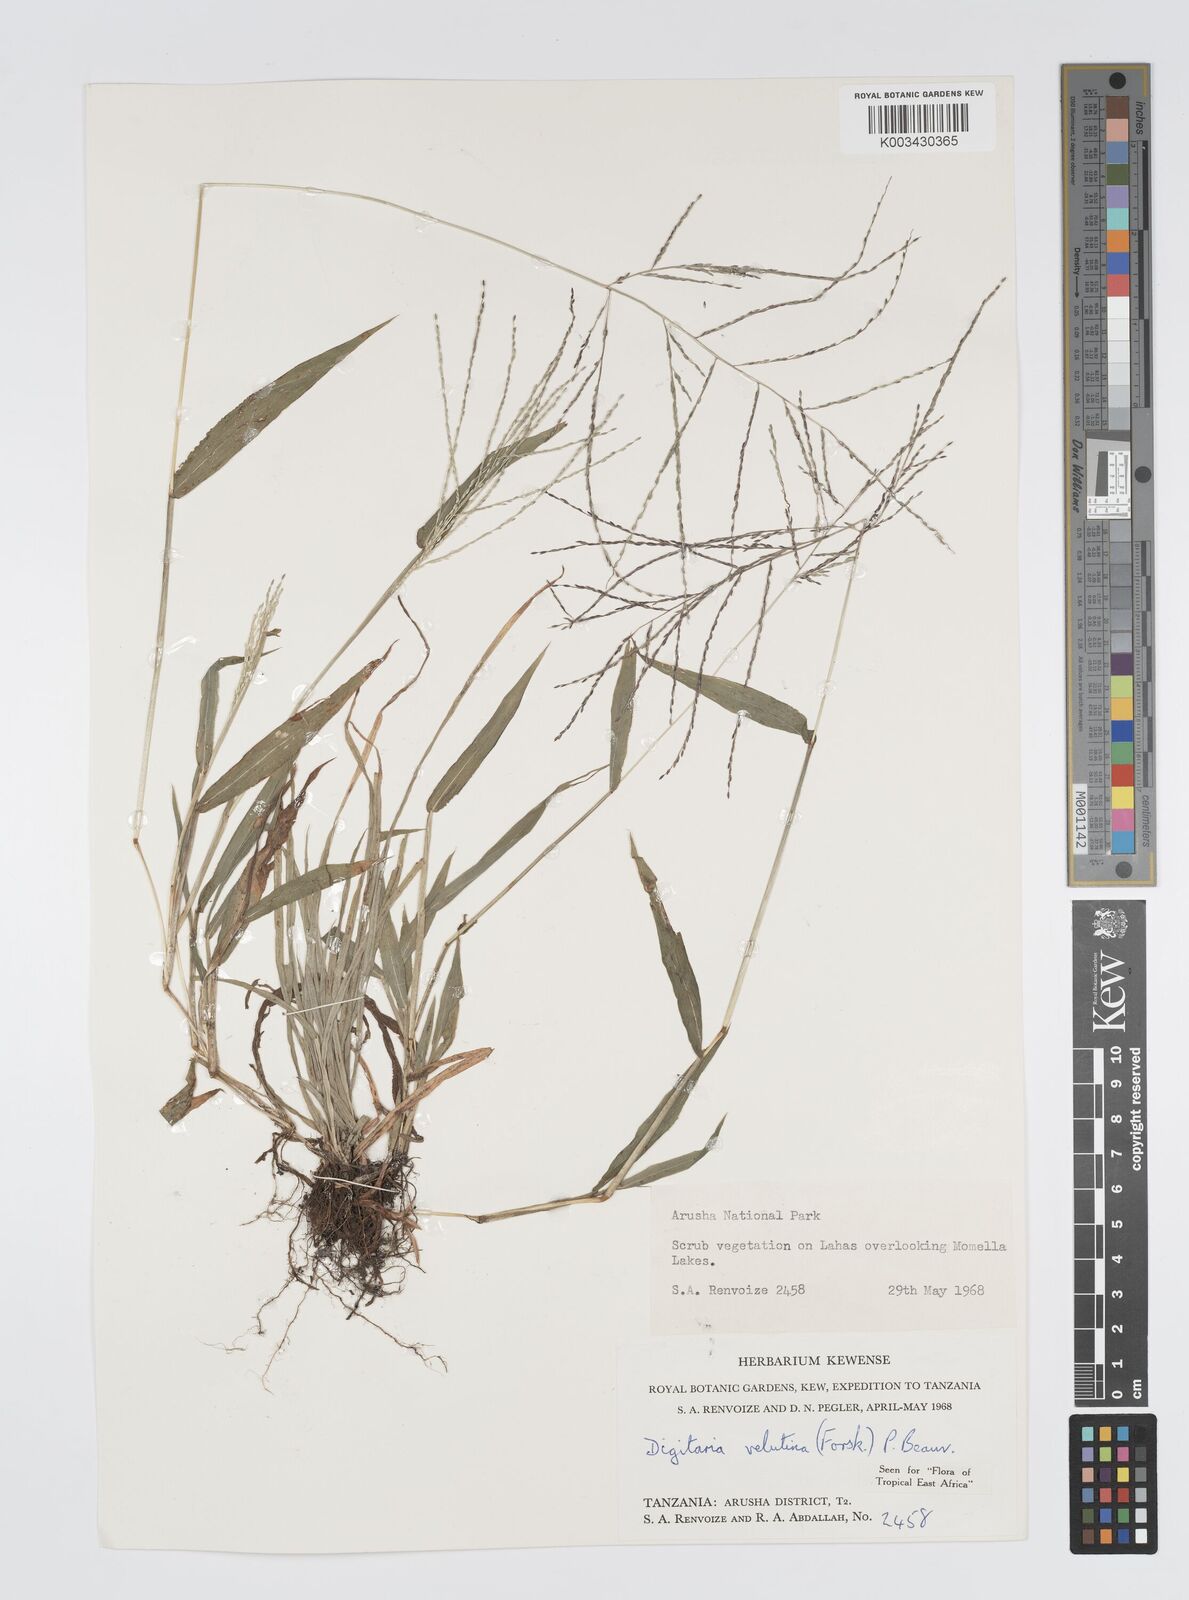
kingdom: Plantae
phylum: Tracheophyta
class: Liliopsida
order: Poales
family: Poaceae
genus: Digitaria
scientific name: Digitaria velutina
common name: Long-plume finger grass
